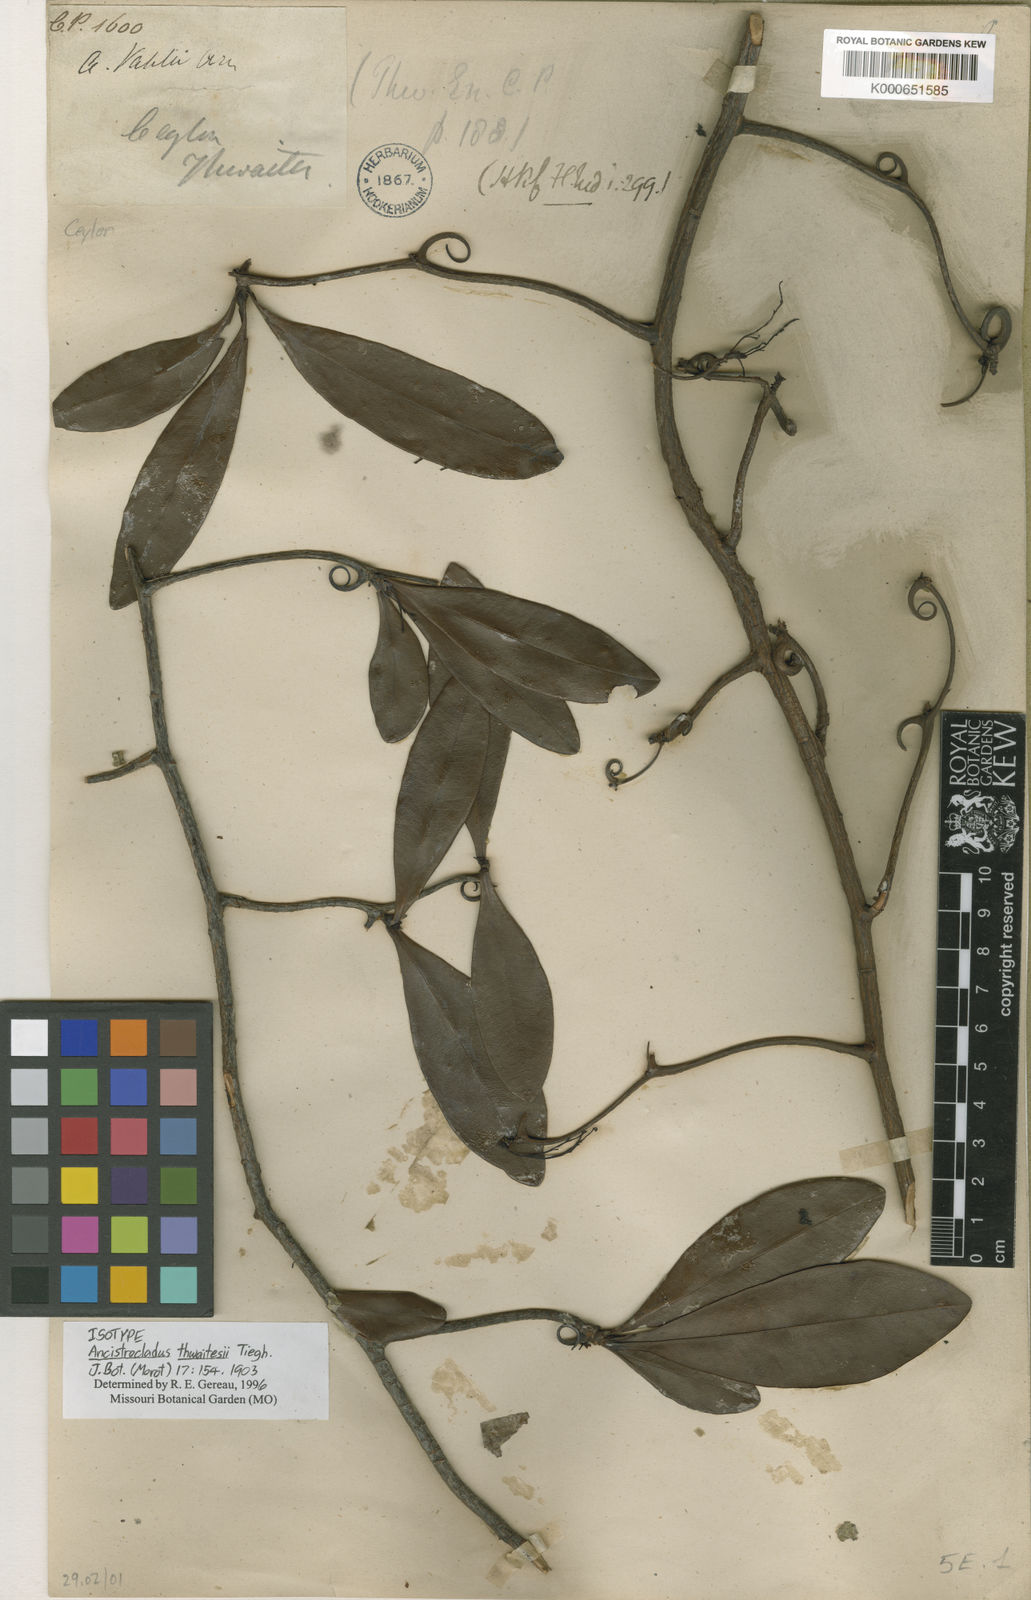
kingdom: Plantae
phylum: Tracheophyta
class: Magnoliopsida
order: Caryophyllales
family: Ancistrocladaceae
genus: Ancistrocladus
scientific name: Ancistrocladus hamatus
